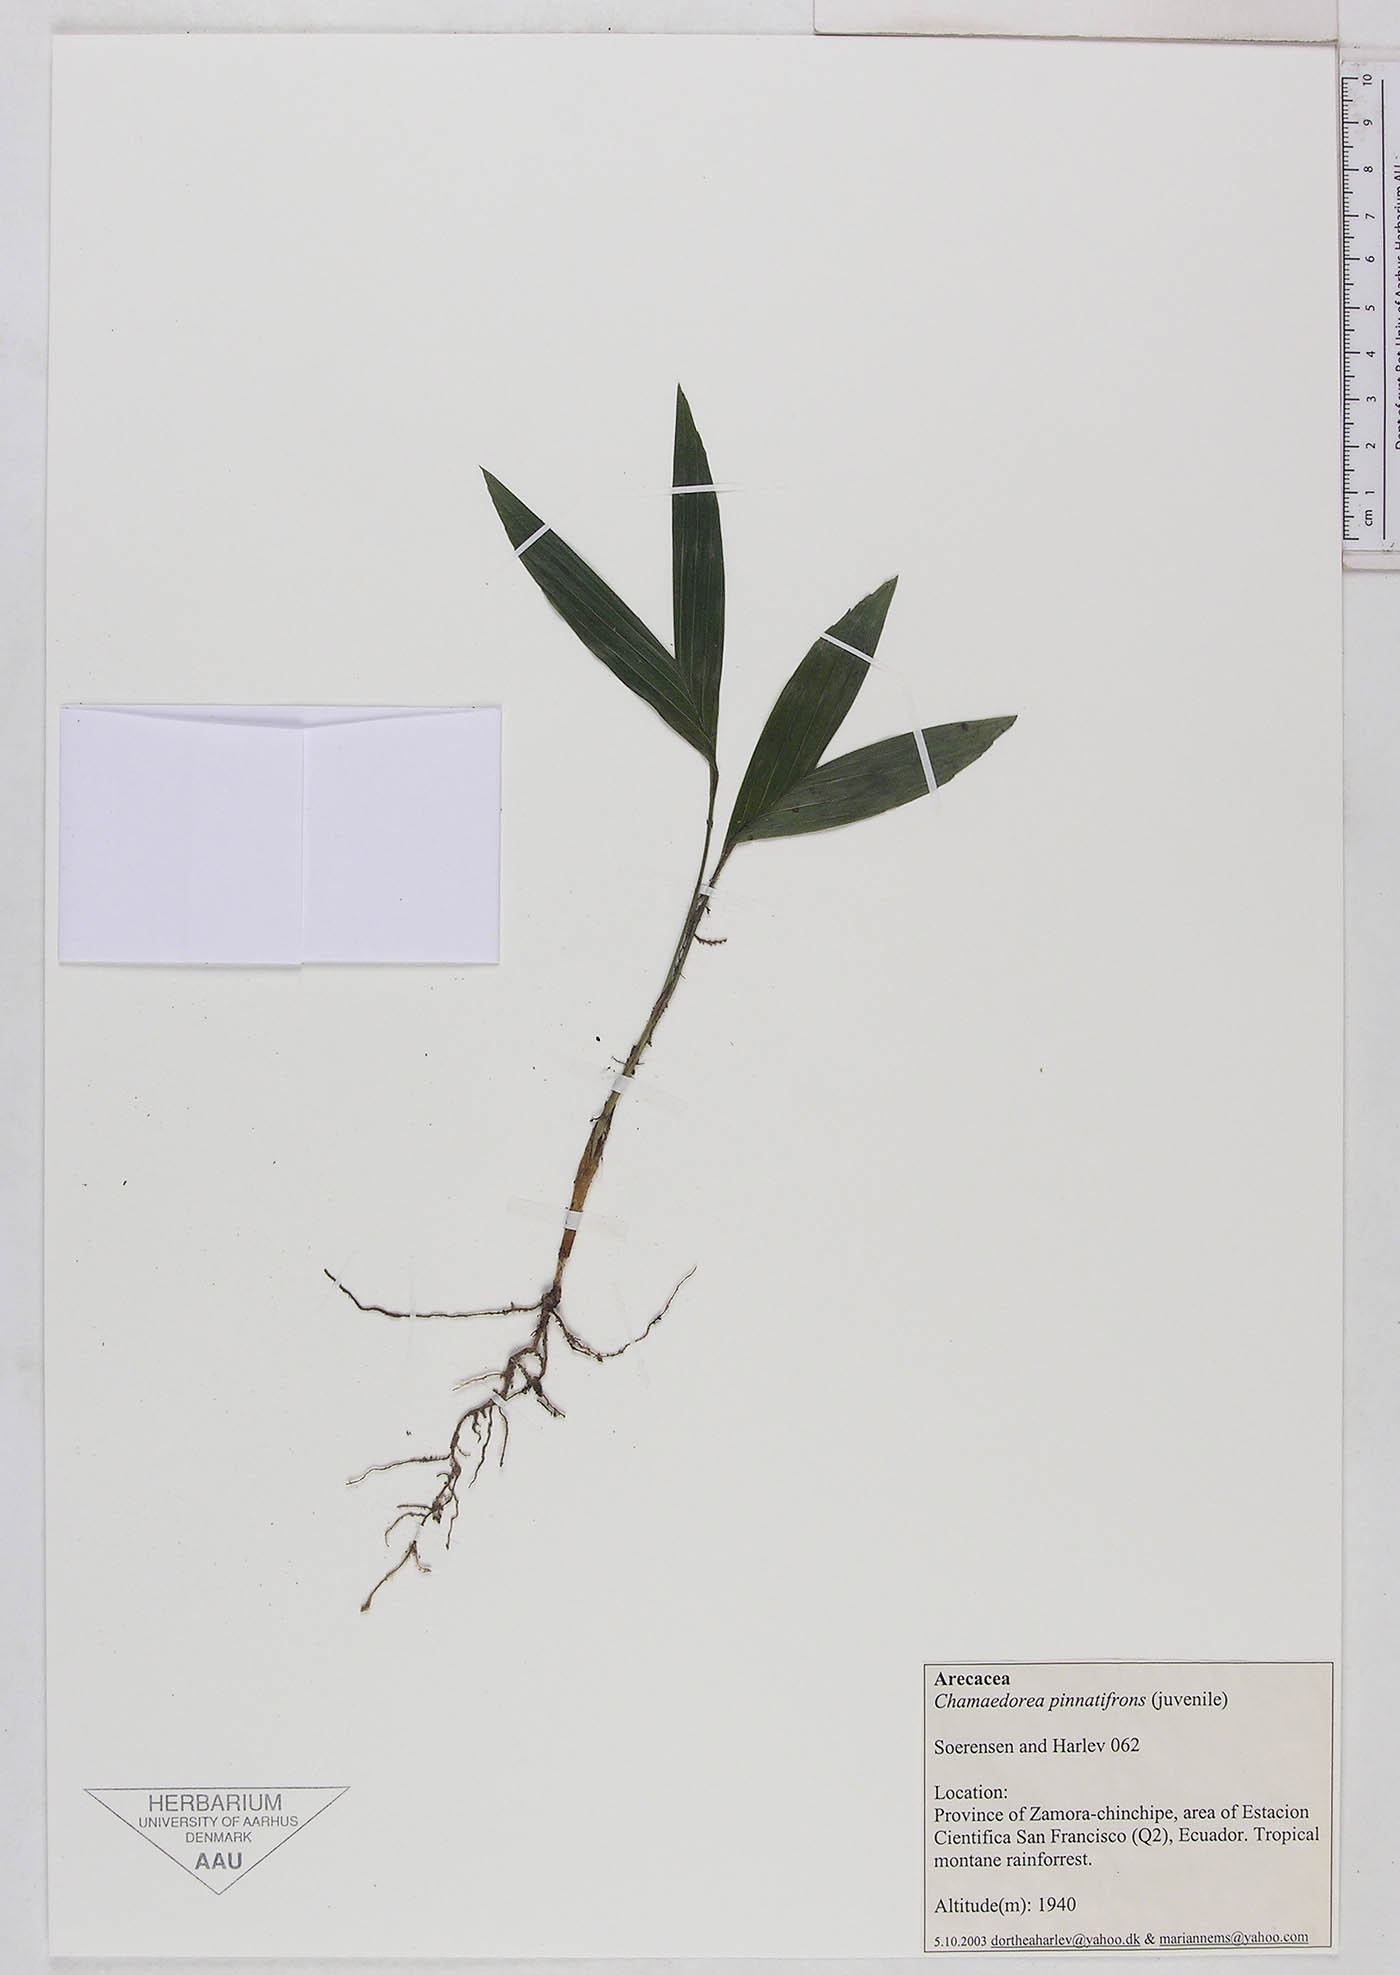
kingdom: Plantae
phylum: Tracheophyta
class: Liliopsida
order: Arecales
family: Arecaceae
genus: Chamaedorea
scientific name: Chamaedorea pinnatifrons
